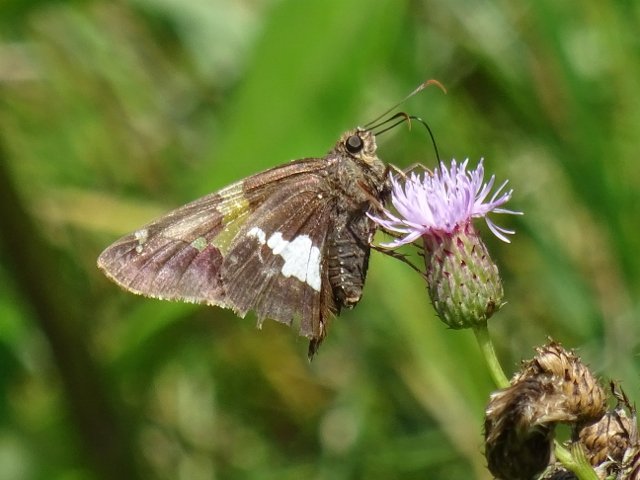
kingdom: Animalia
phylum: Arthropoda
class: Insecta
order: Lepidoptera
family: Hesperiidae
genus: Epargyreus
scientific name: Epargyreus clarus
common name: Silver-spotted Skipper
